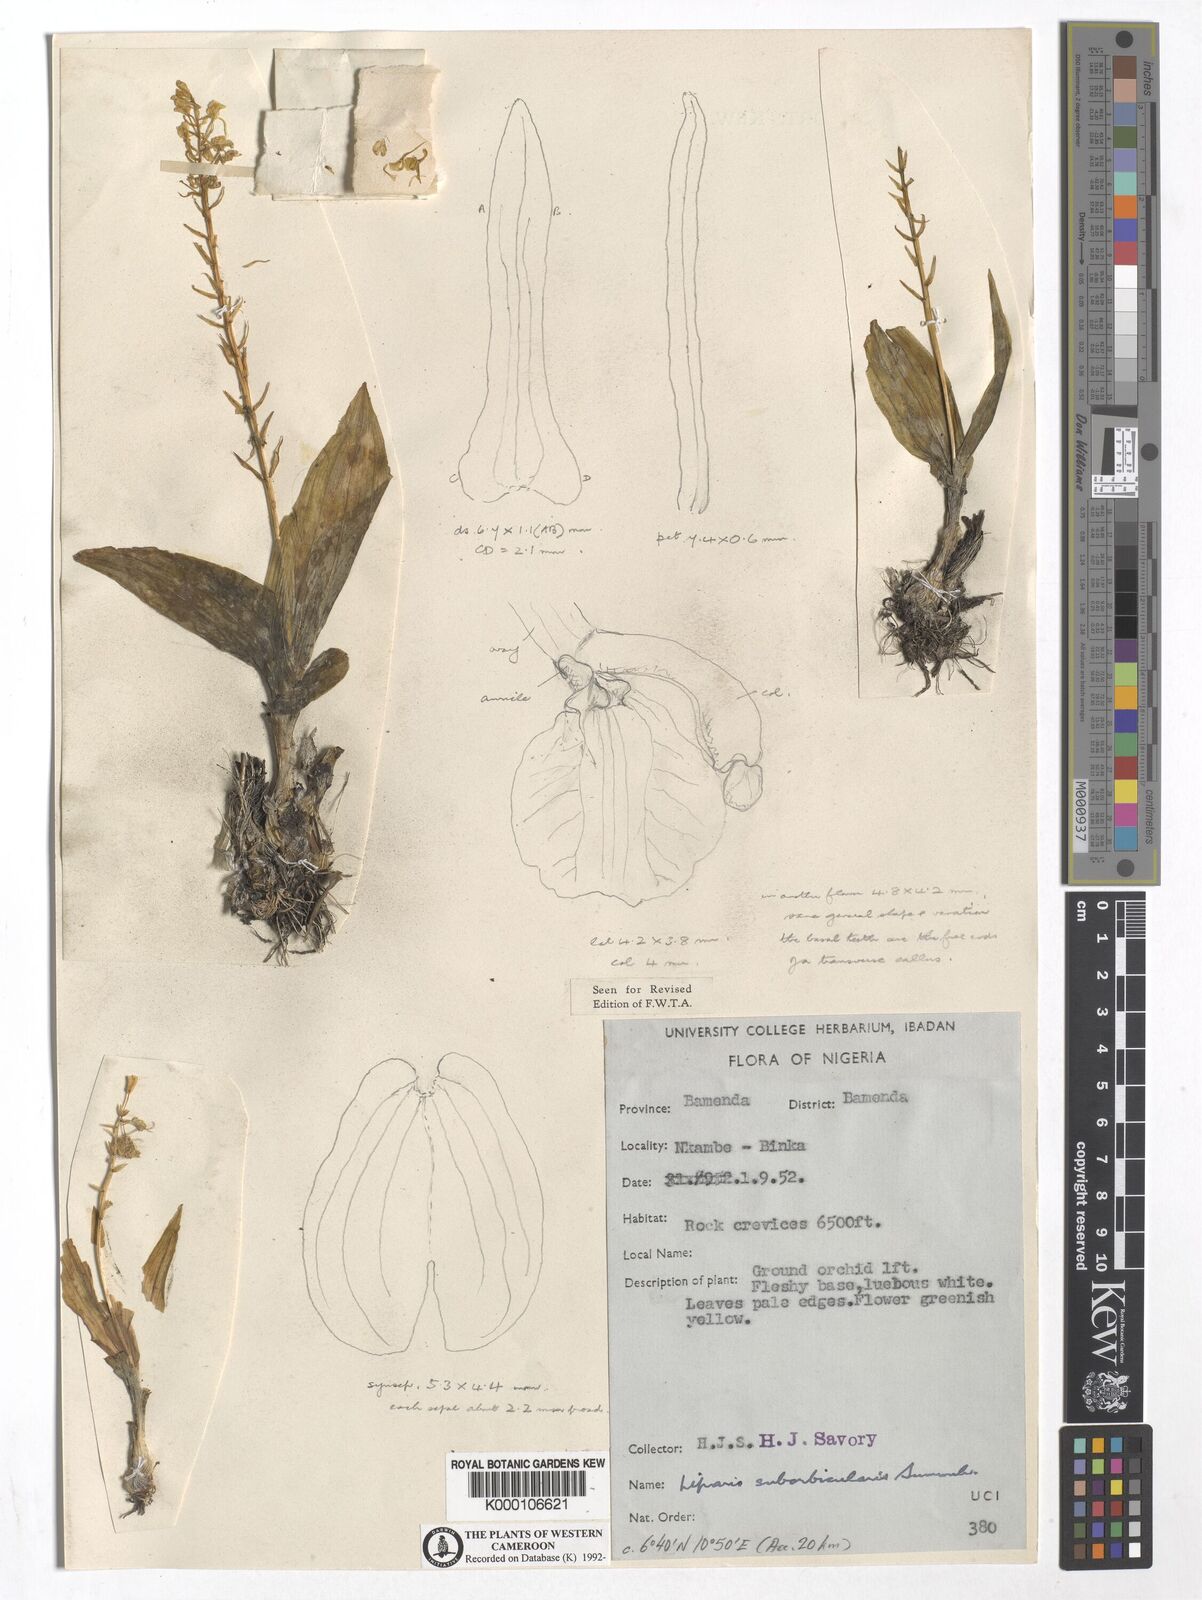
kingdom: Plantae
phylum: Tracheophyta
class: Liliopsida
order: Asparagales
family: Orchidaceae
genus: Liparis
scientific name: Liparis suborbicularis
